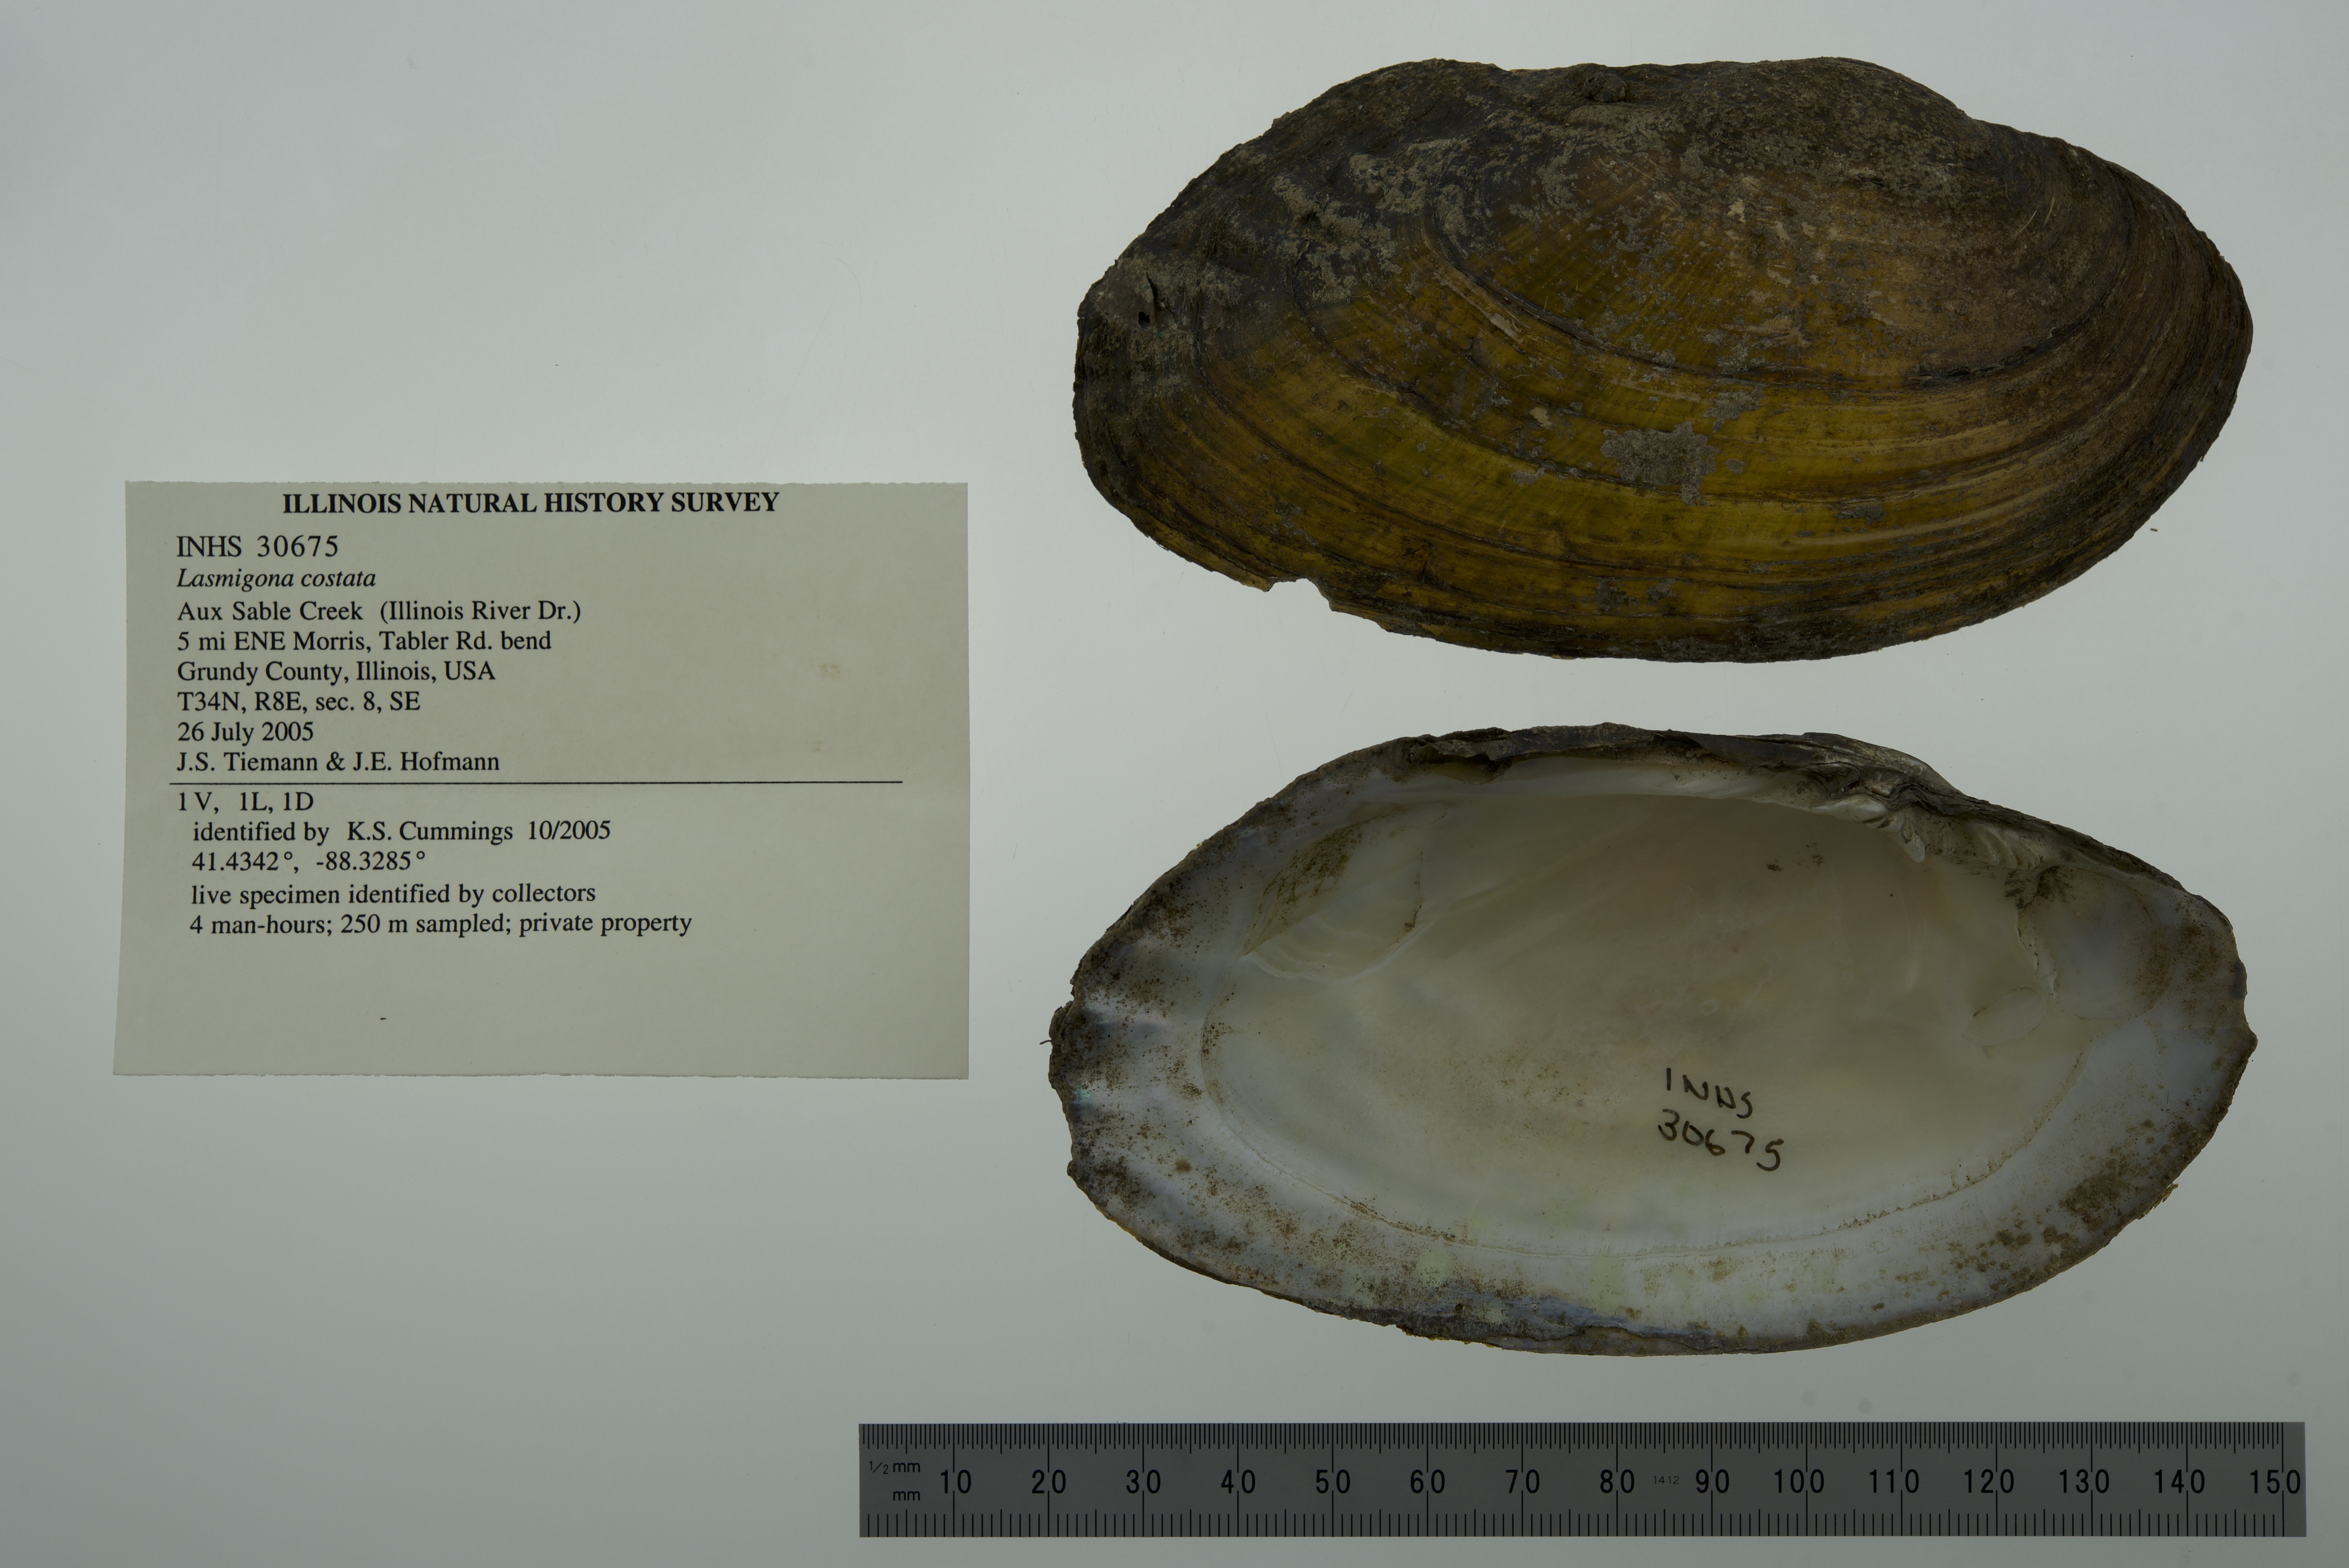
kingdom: Animalia
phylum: Mollusca
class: Bivalvia
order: Unionida
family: Unionidae
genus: Lasmigona
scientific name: Lasmigona costata
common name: Flutedshell
